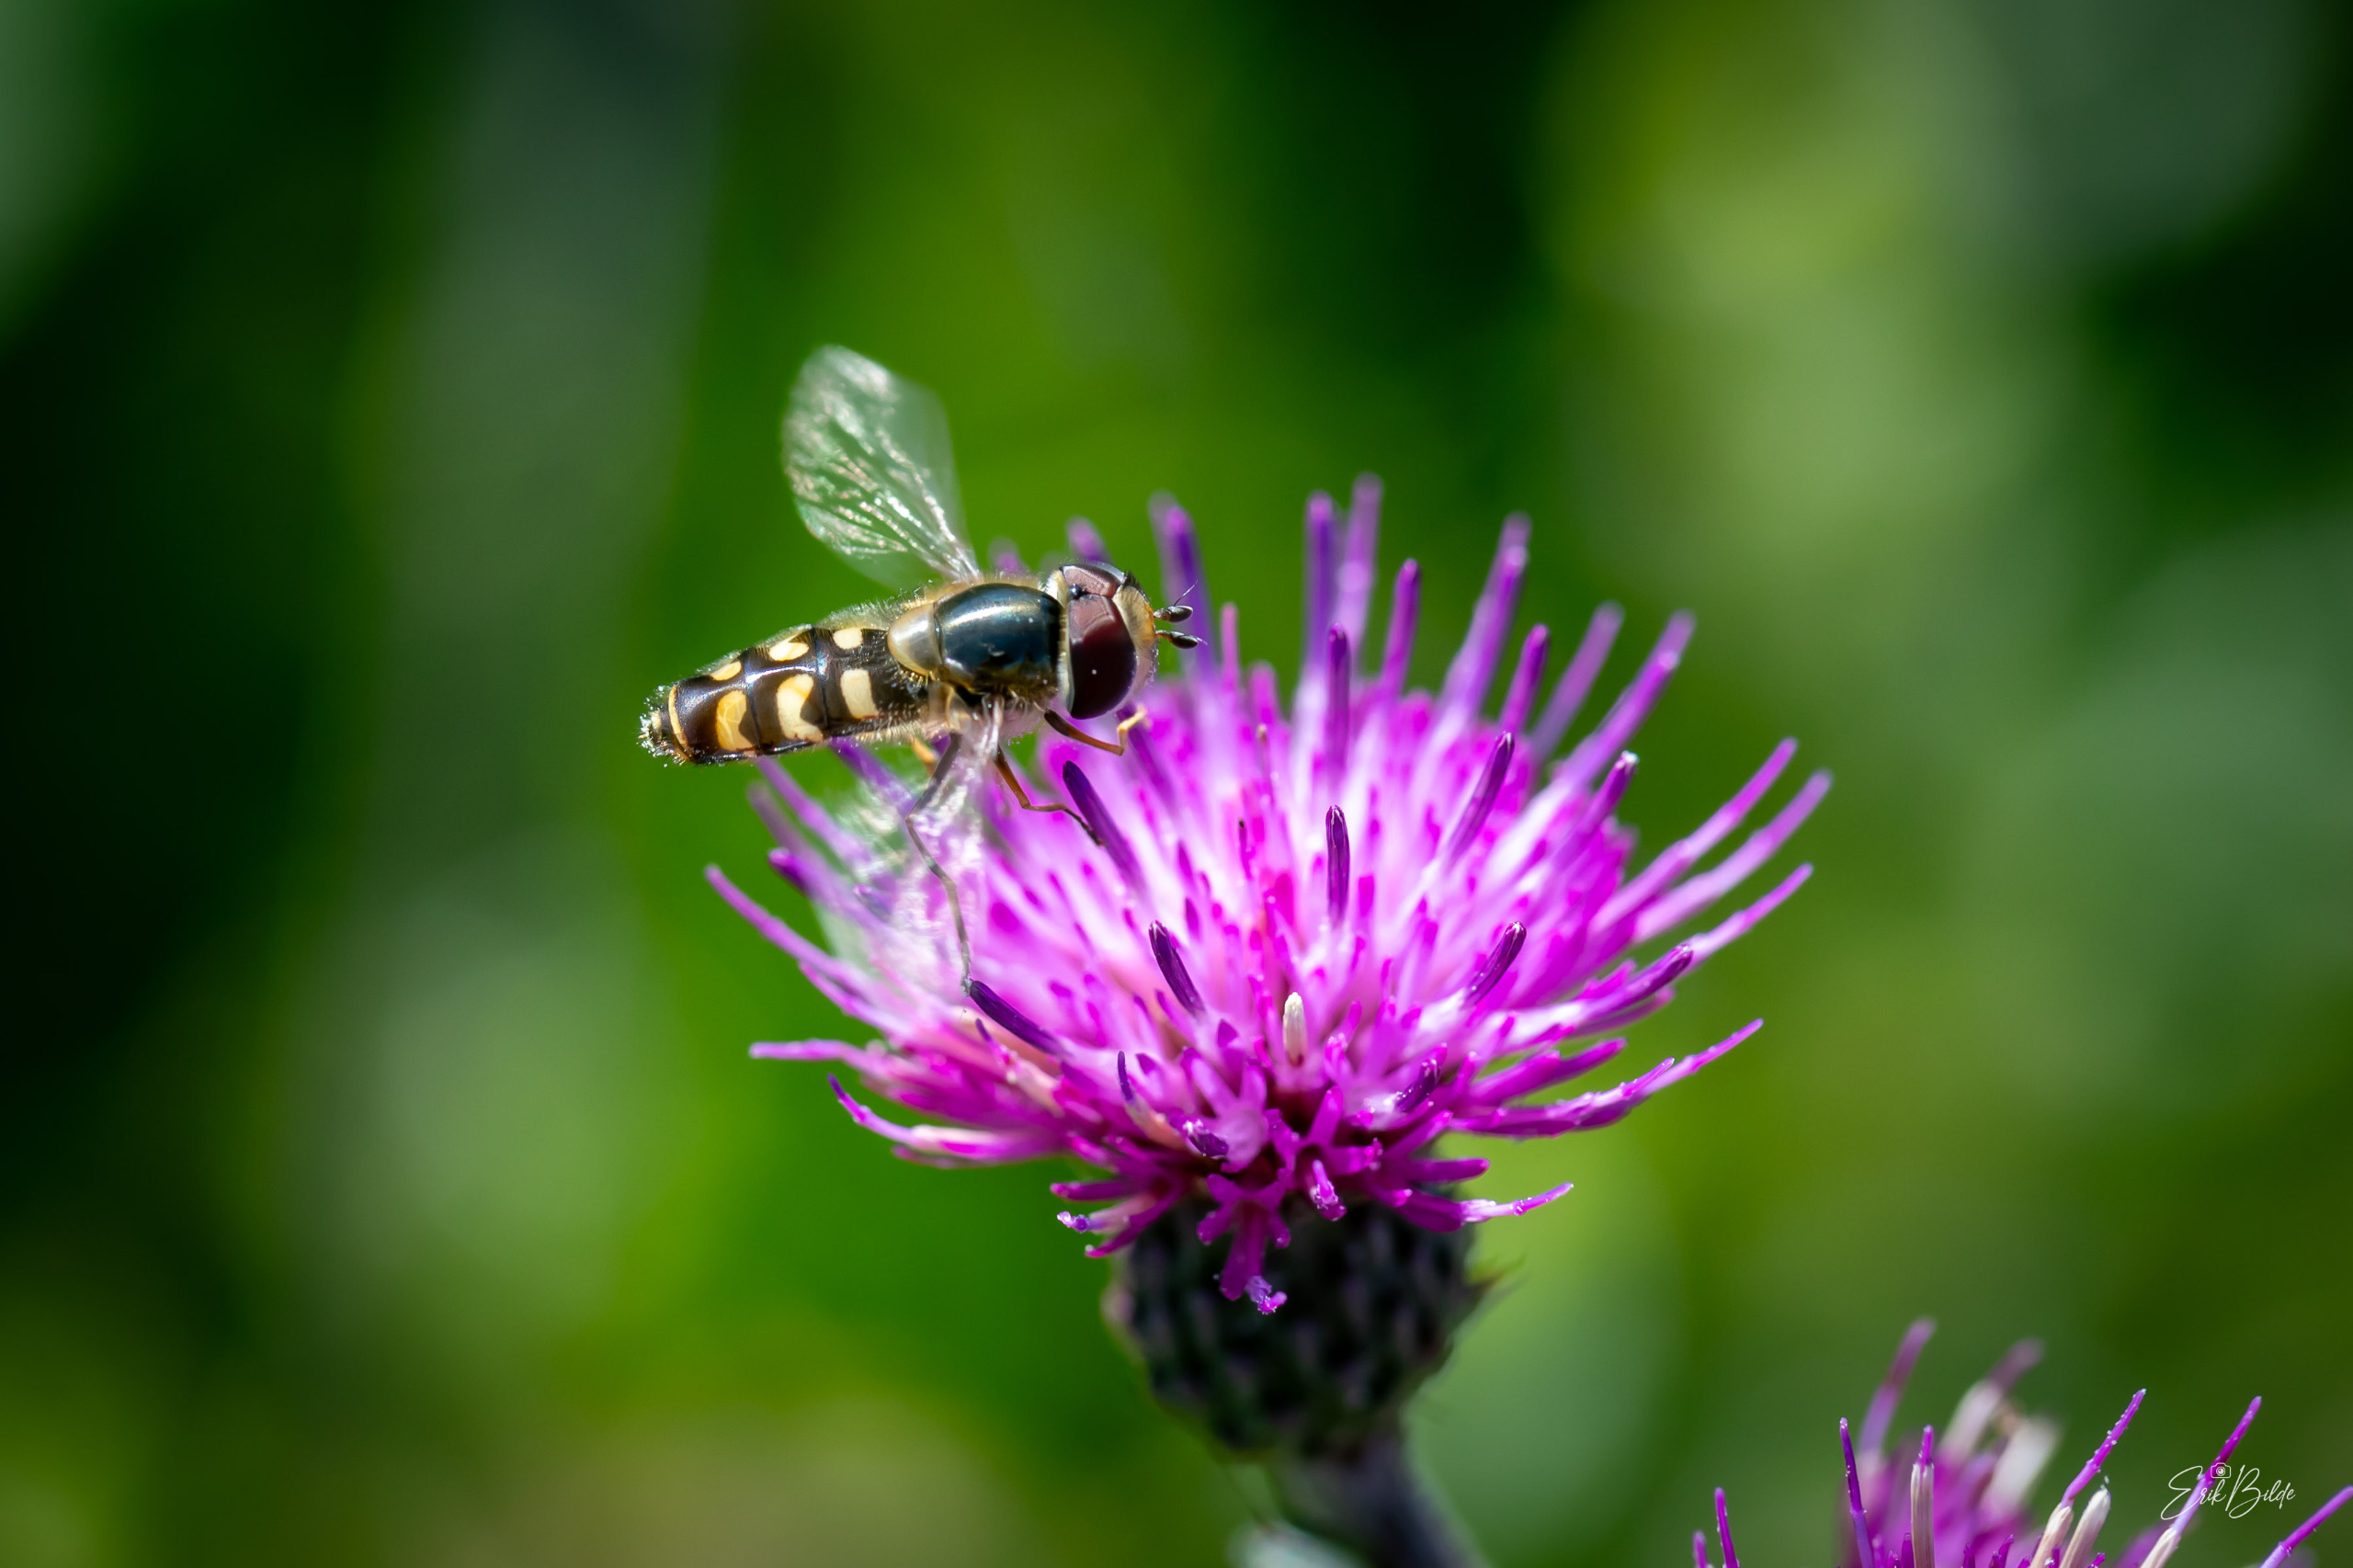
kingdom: Animalia
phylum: Arthropoda
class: Insecta
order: Diptera
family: Syrphidae
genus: Scaeva
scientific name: Scaeva selenitica
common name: Gulplettet agersvirreflue
